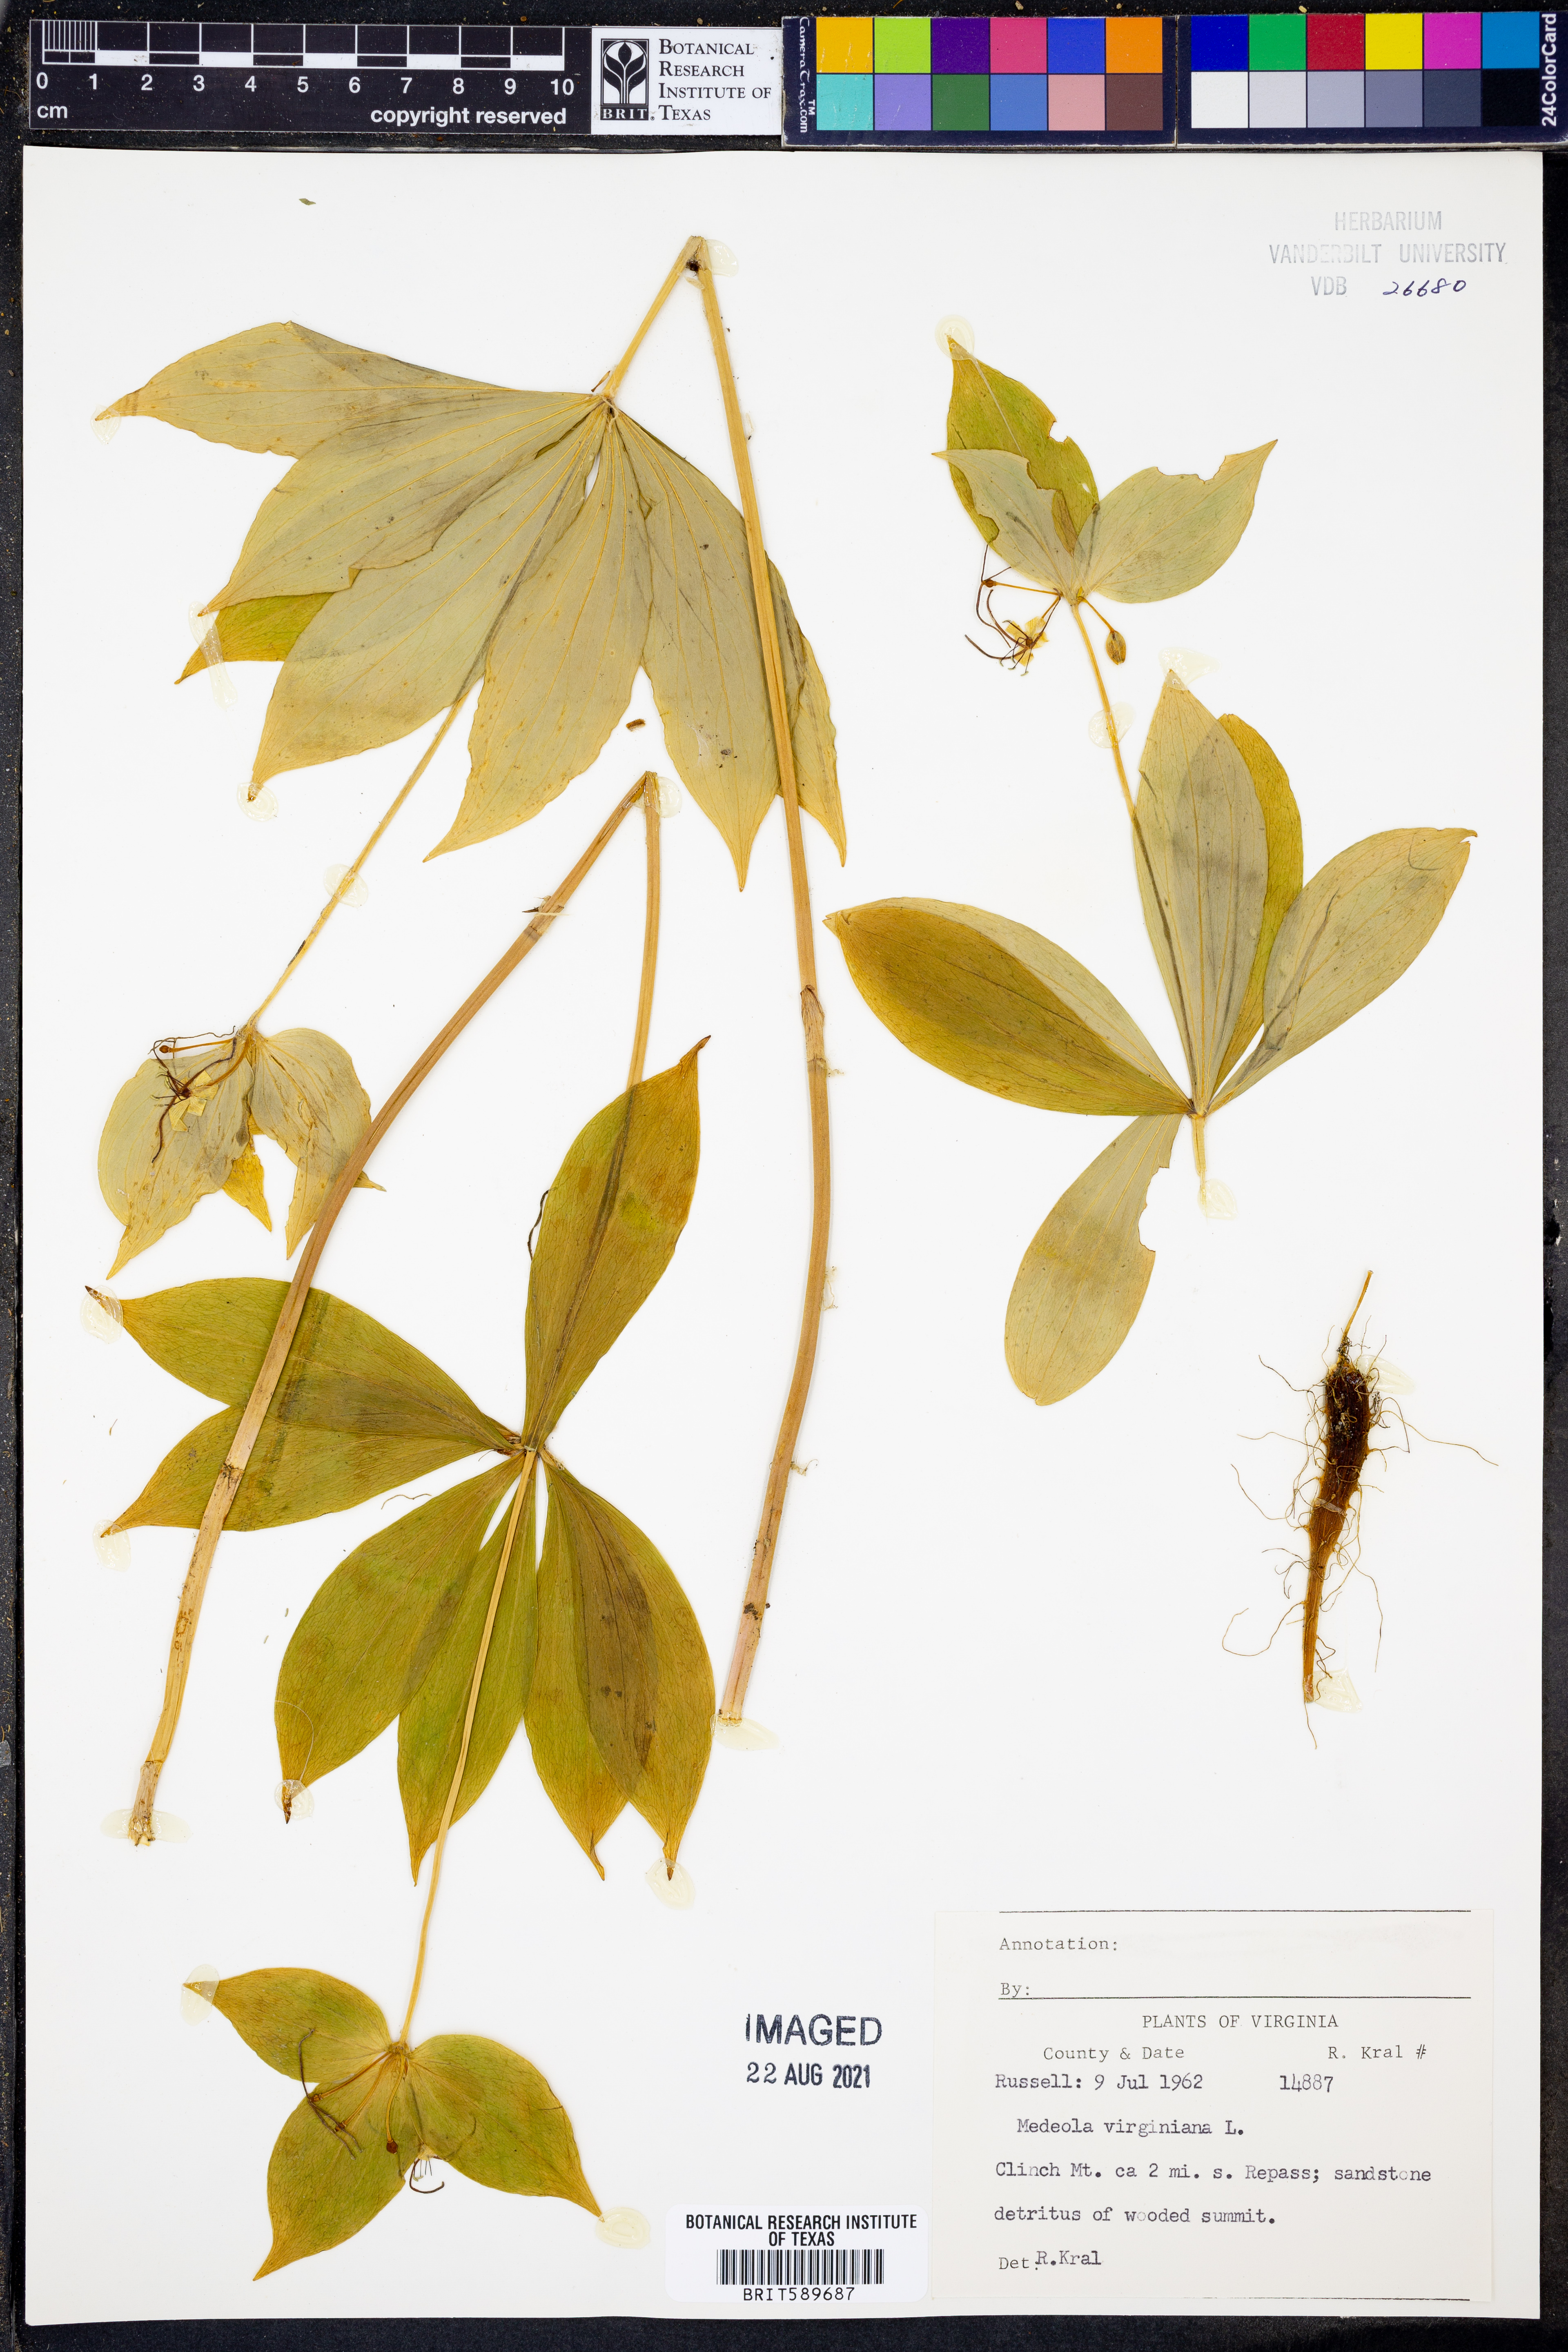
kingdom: Plantae
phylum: Tracheophyta
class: Liliopsida
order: Liliales
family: Liliaceae
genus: Medeola
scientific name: Medeola virginiana
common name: Indian cucumber-root
